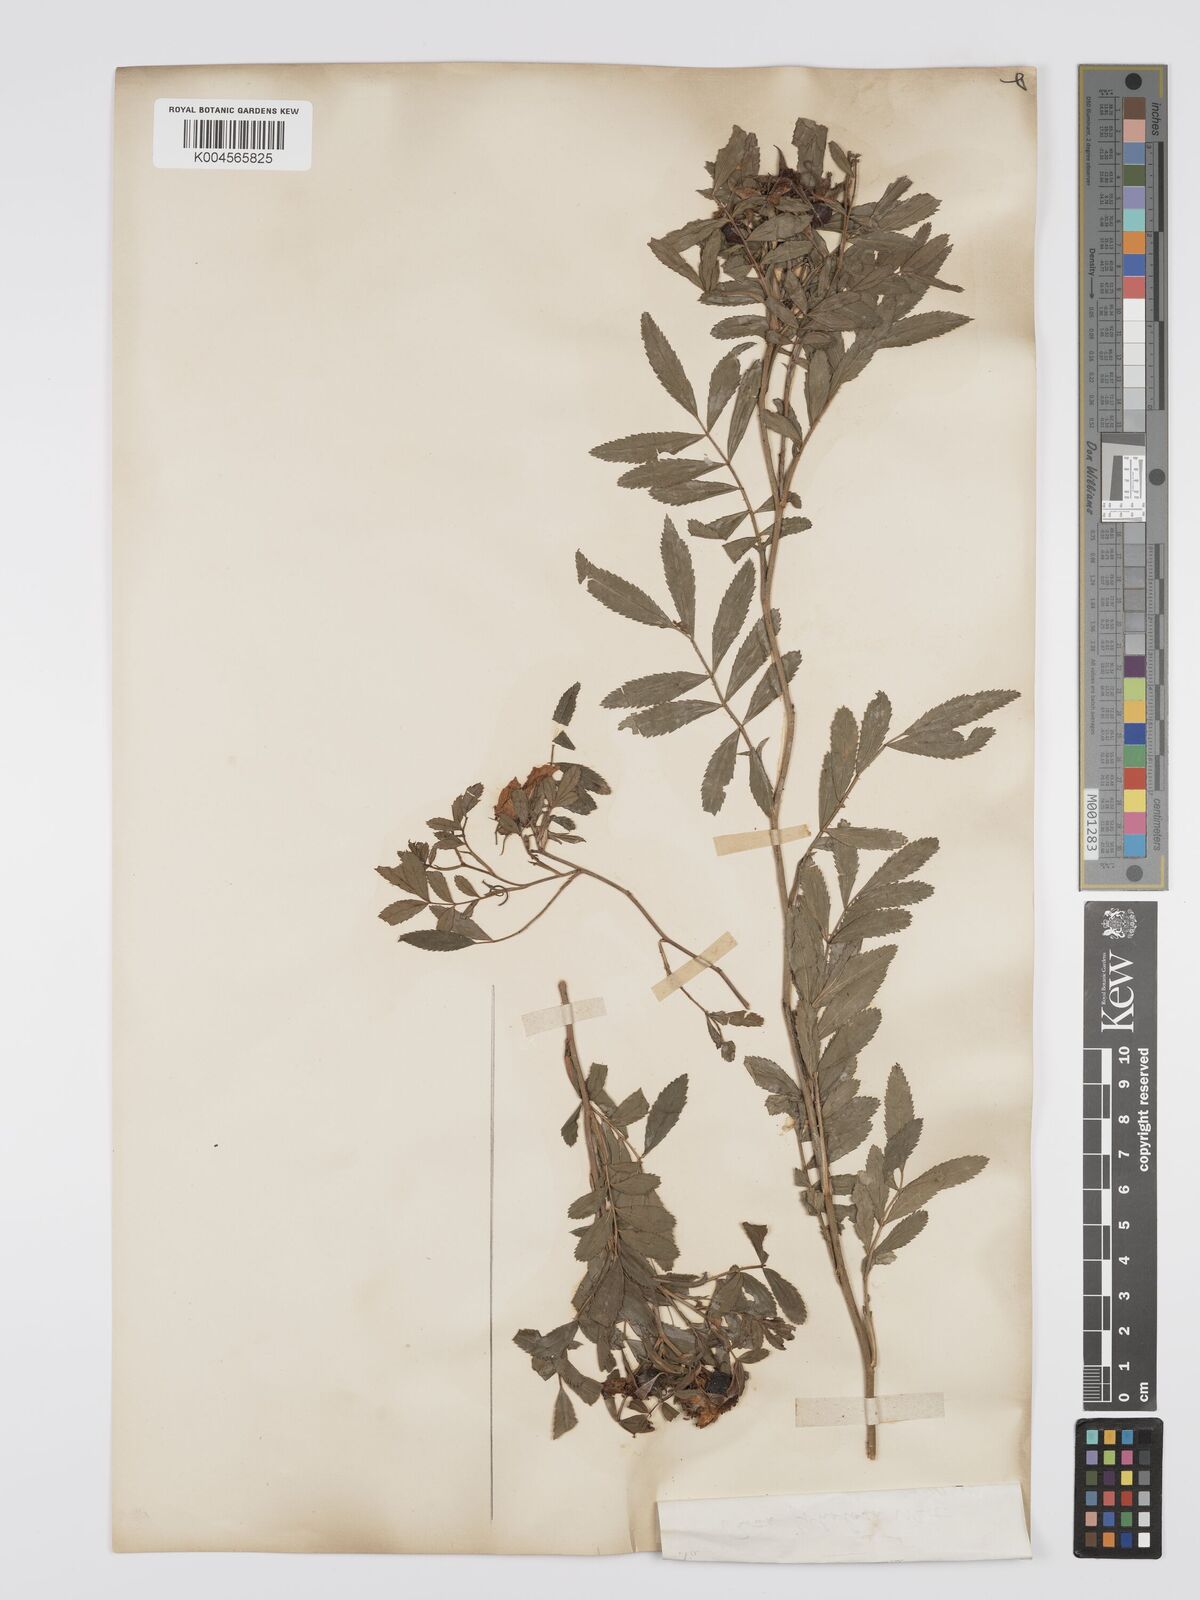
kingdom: Plantae
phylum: Tracheophyta
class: Magnoliopsida
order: Rosales
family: Rosaceae
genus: Rosa
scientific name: Rosa foliolosa
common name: White prairie rose
